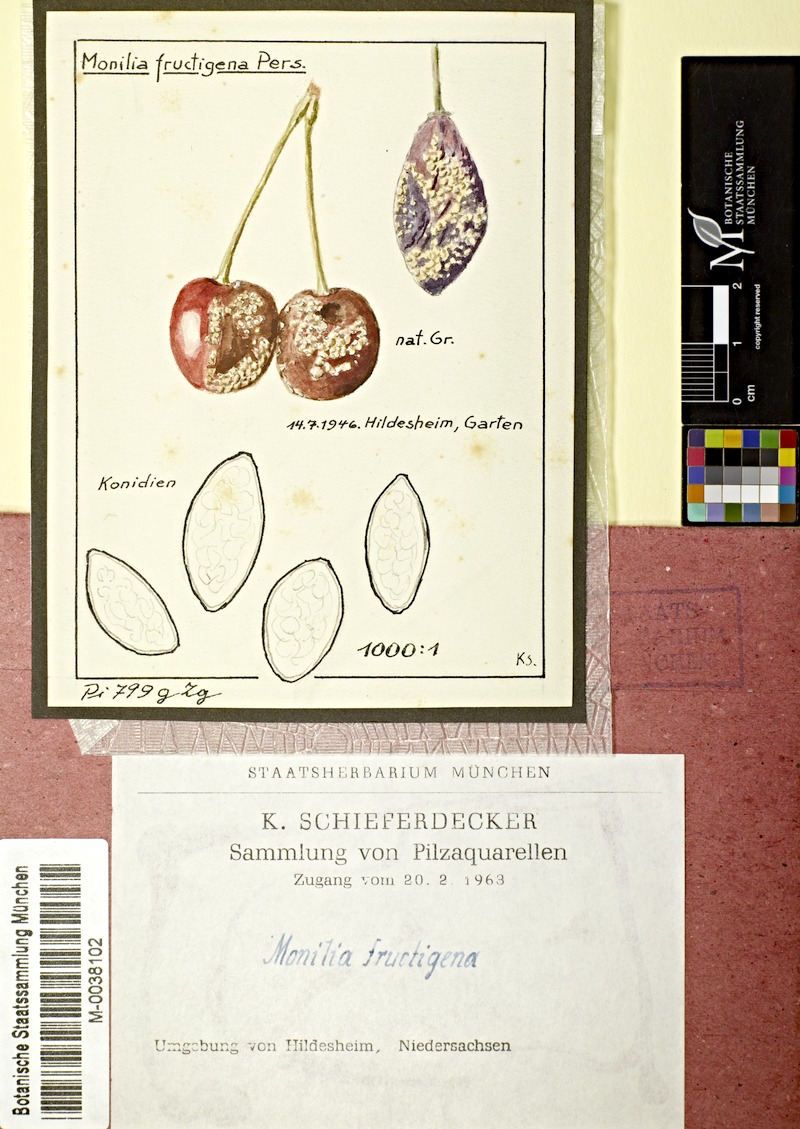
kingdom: Fungi
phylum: Ascomycota
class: Leotiomycetes
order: Helotiales
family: Sclerotiniaceae
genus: Monilinia
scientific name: Monilinia fructigena
